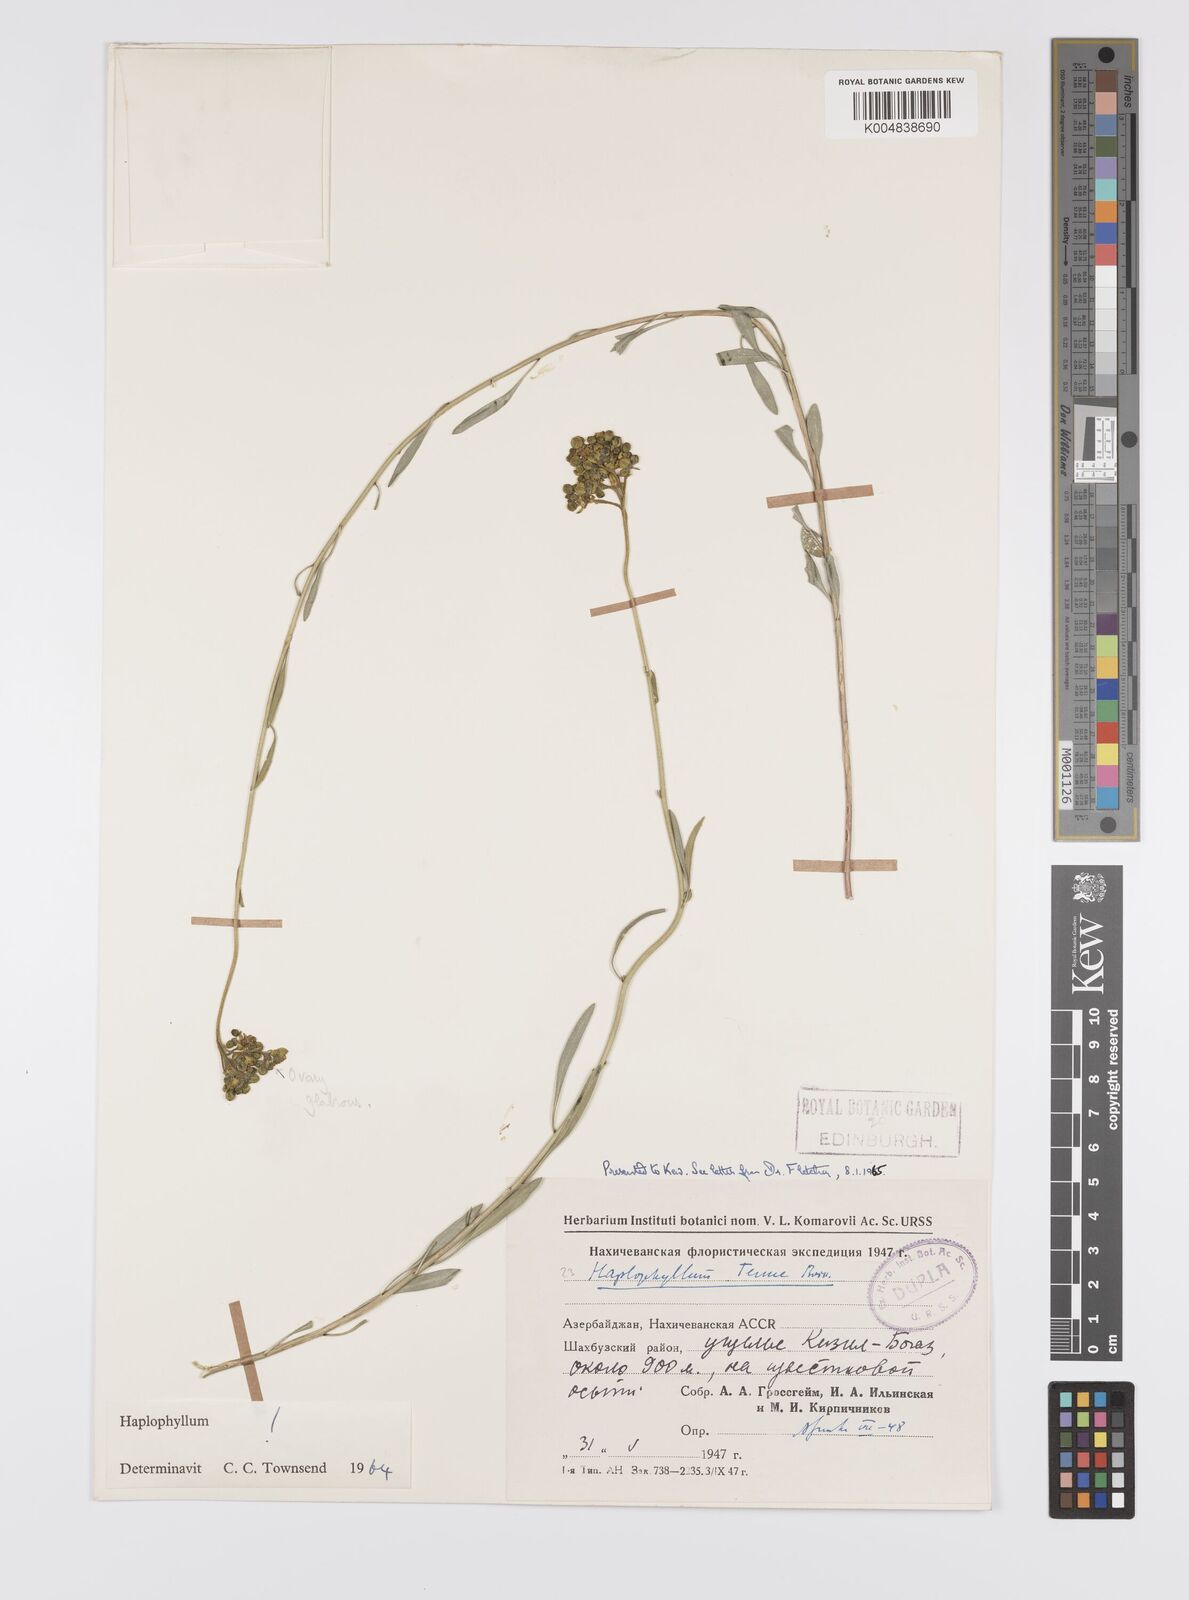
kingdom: Plantae
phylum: Tracheophyta
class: Magnoliopsida
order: Sapindales
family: Rutaceae
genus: Haplophyllum
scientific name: Haplophyllum tenue
